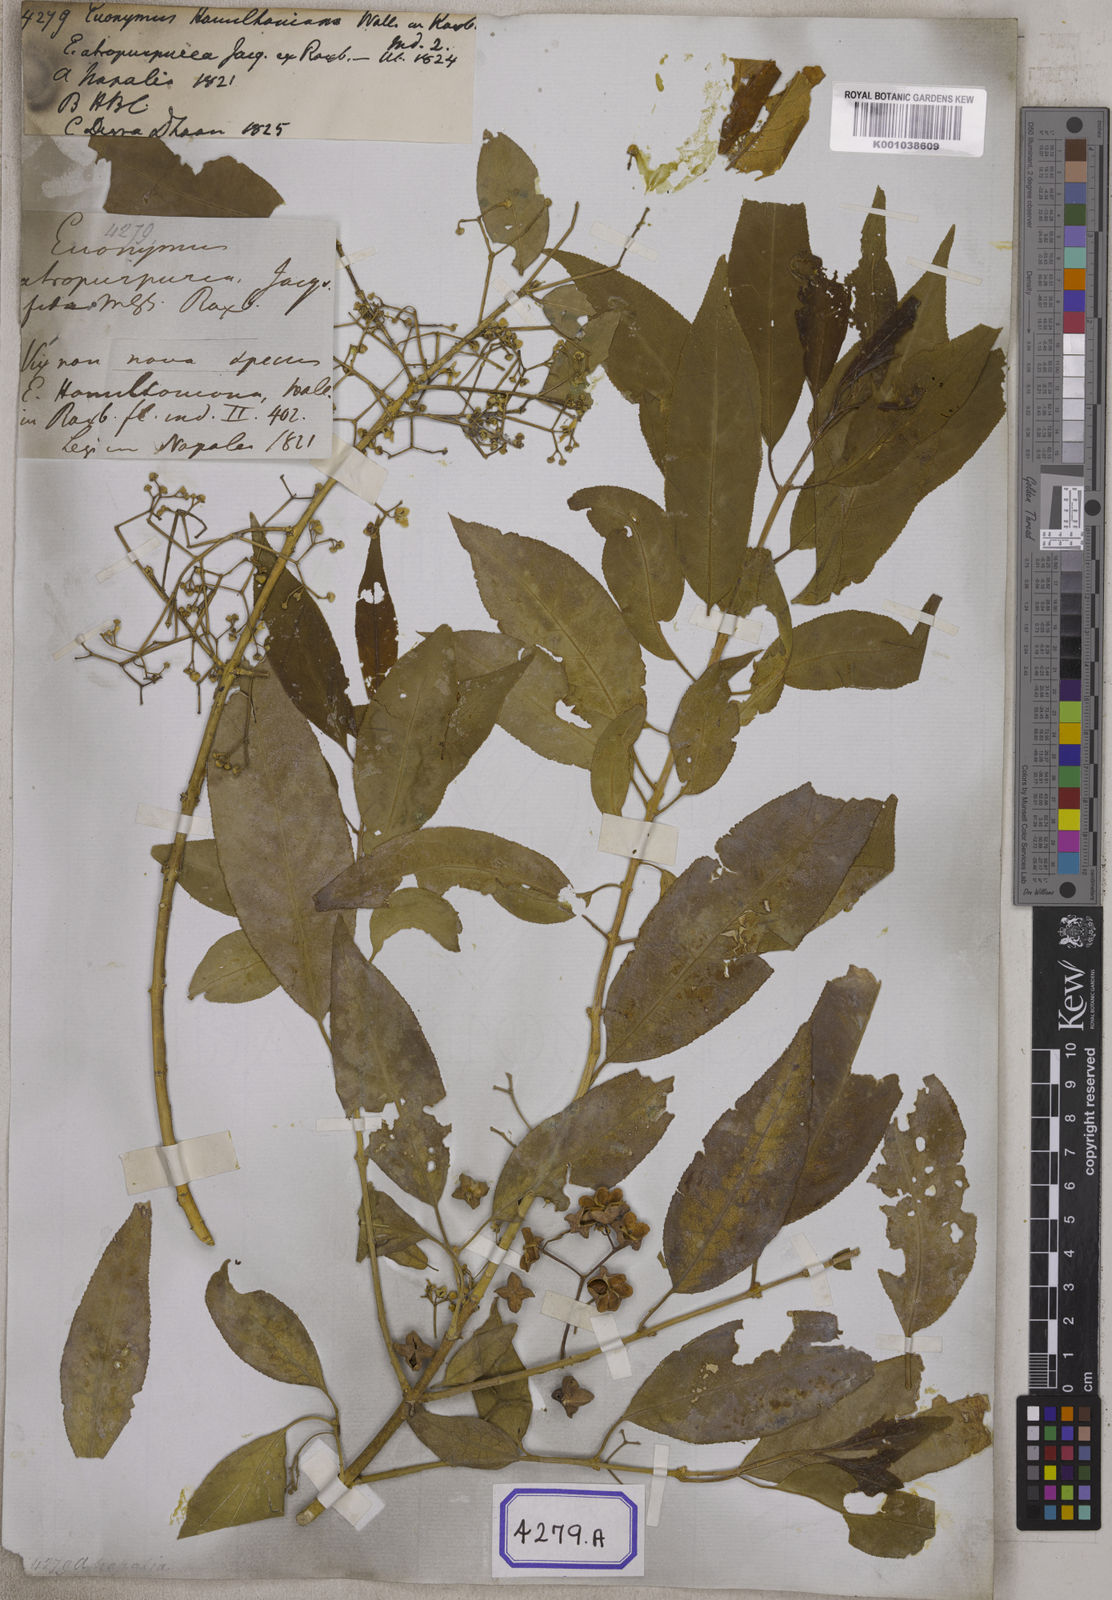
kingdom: Plantae
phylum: Tracheophyta
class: Magnoliopsida
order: Celastrales
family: Celastraceae
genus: Euonymus
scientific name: Euonymus hamiltonianus
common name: Hamilton's spindletree
